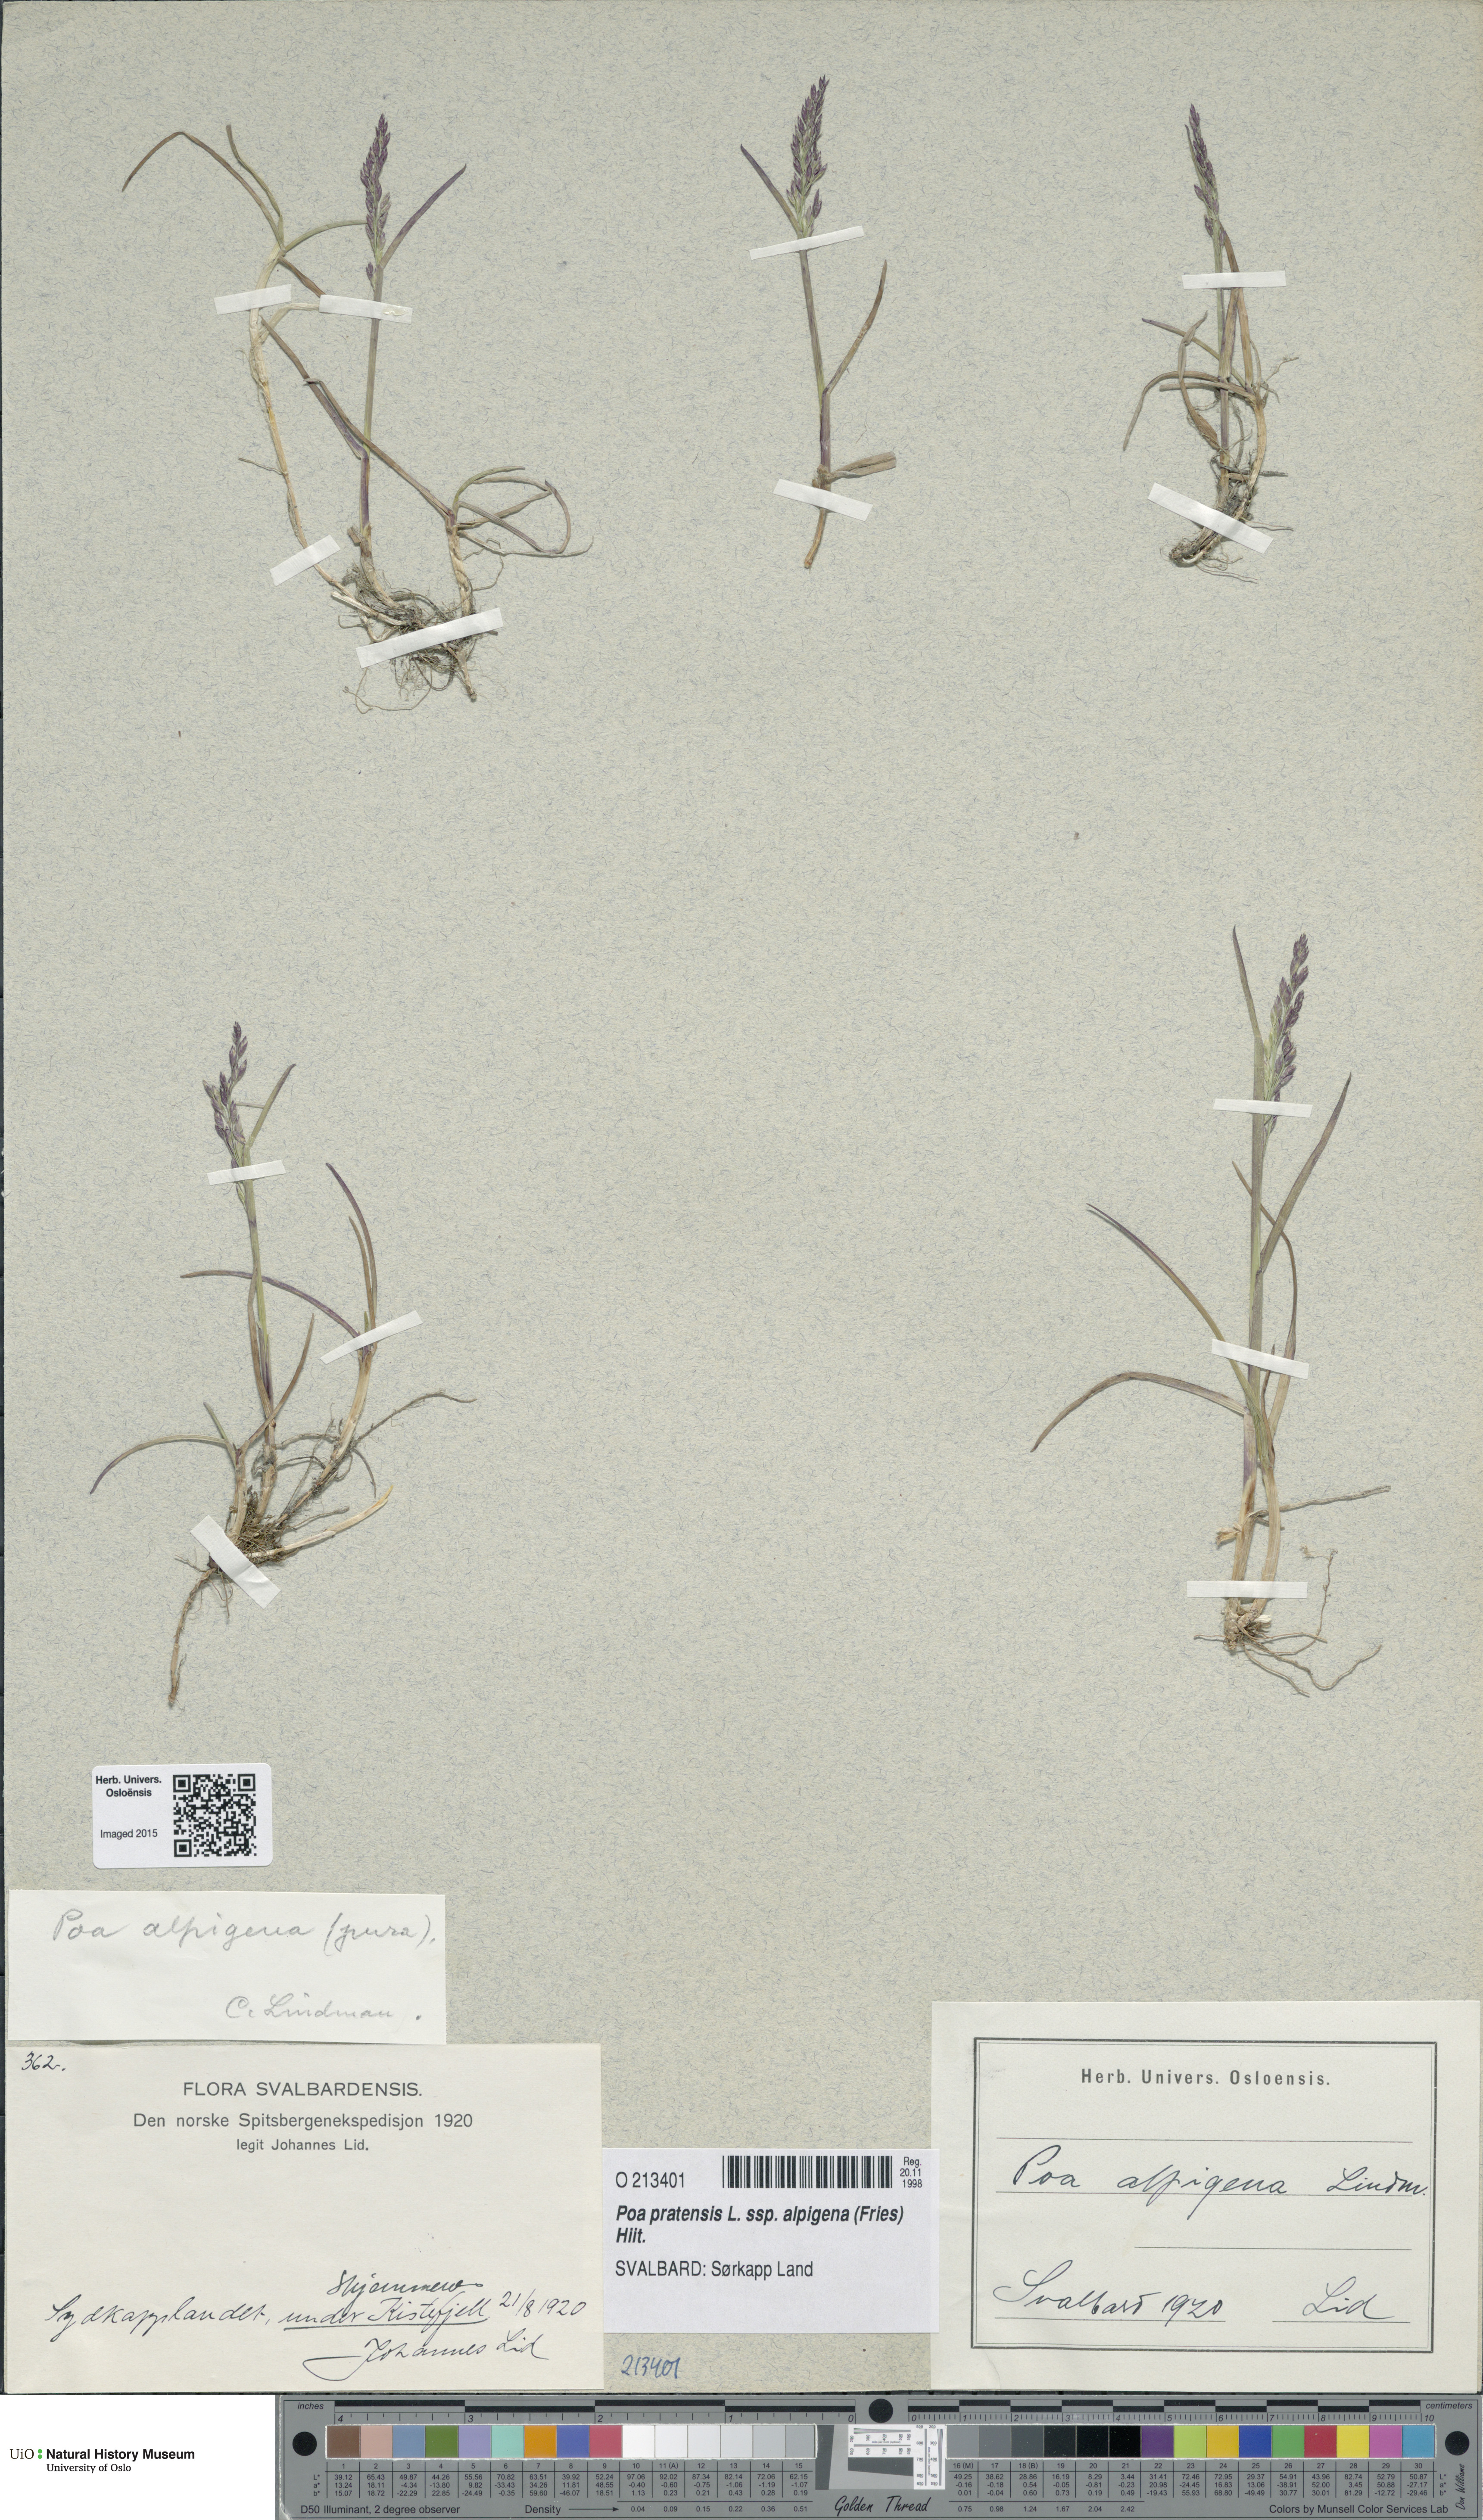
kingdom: Plantae
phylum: Tracheophyta
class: Liliopsida
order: Poales
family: Poaceae
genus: Poa
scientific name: Poa alpigena
